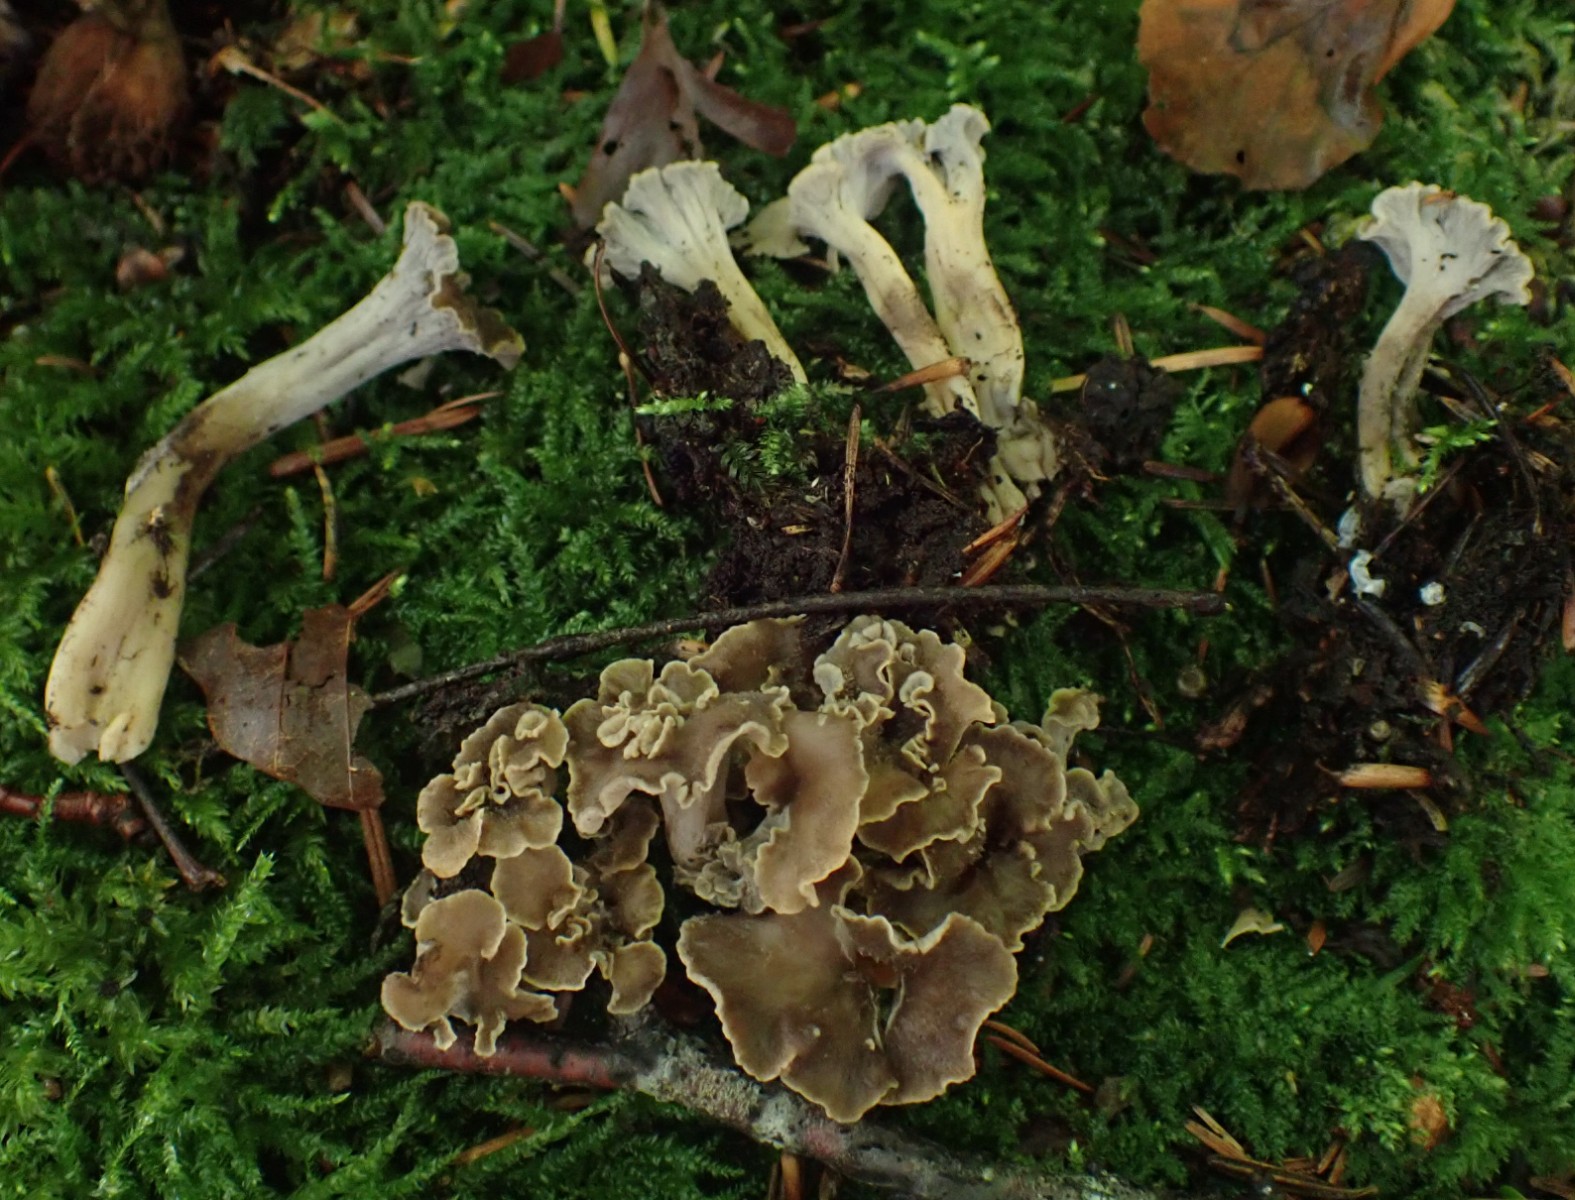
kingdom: Fungi
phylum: Basidiomycota
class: Agaricomycetes
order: Cantharellales
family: Hydnaceae
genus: Craterellus
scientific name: Craterellus undulatus
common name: liden kantarel
